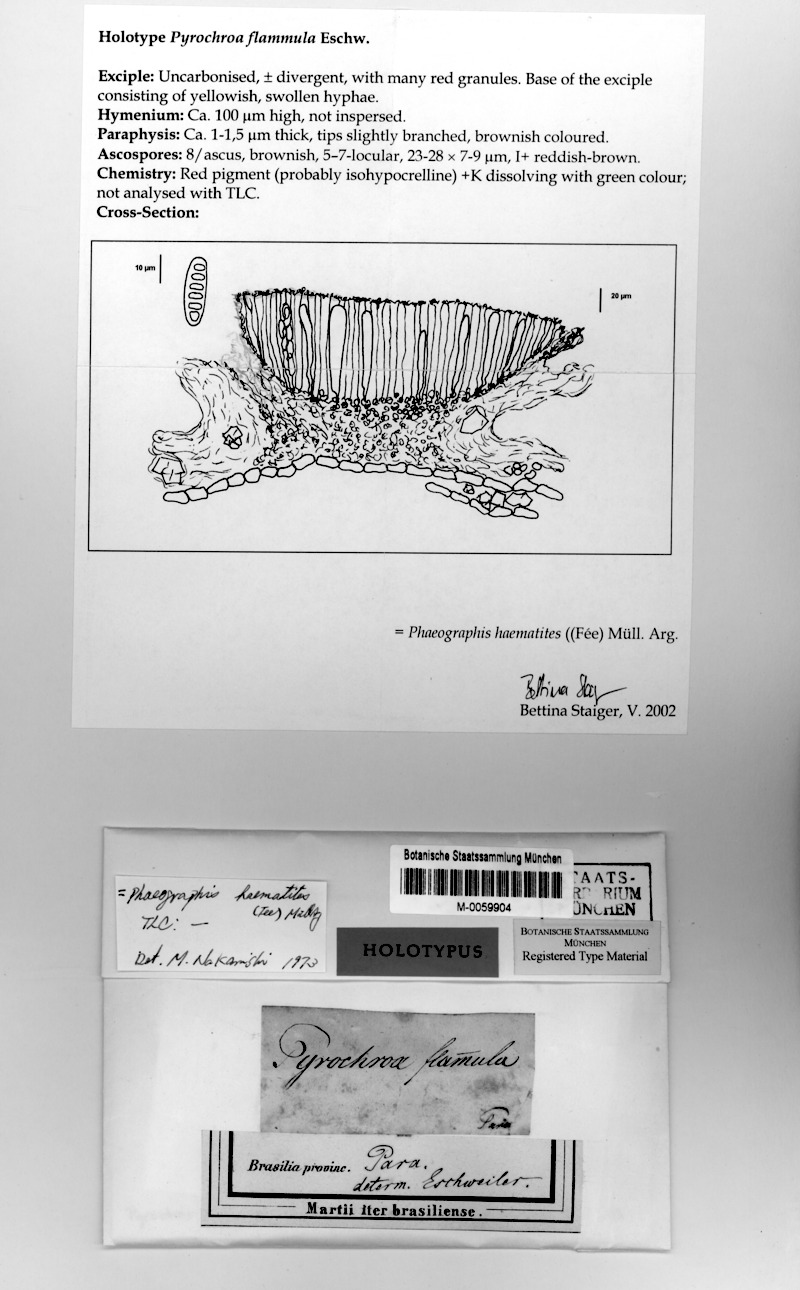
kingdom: Fungi
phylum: Ascomycota
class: Lecanoromycetes
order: Ostropales
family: Graphidaceae
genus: Phaeographis
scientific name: Phaeographis haematites
